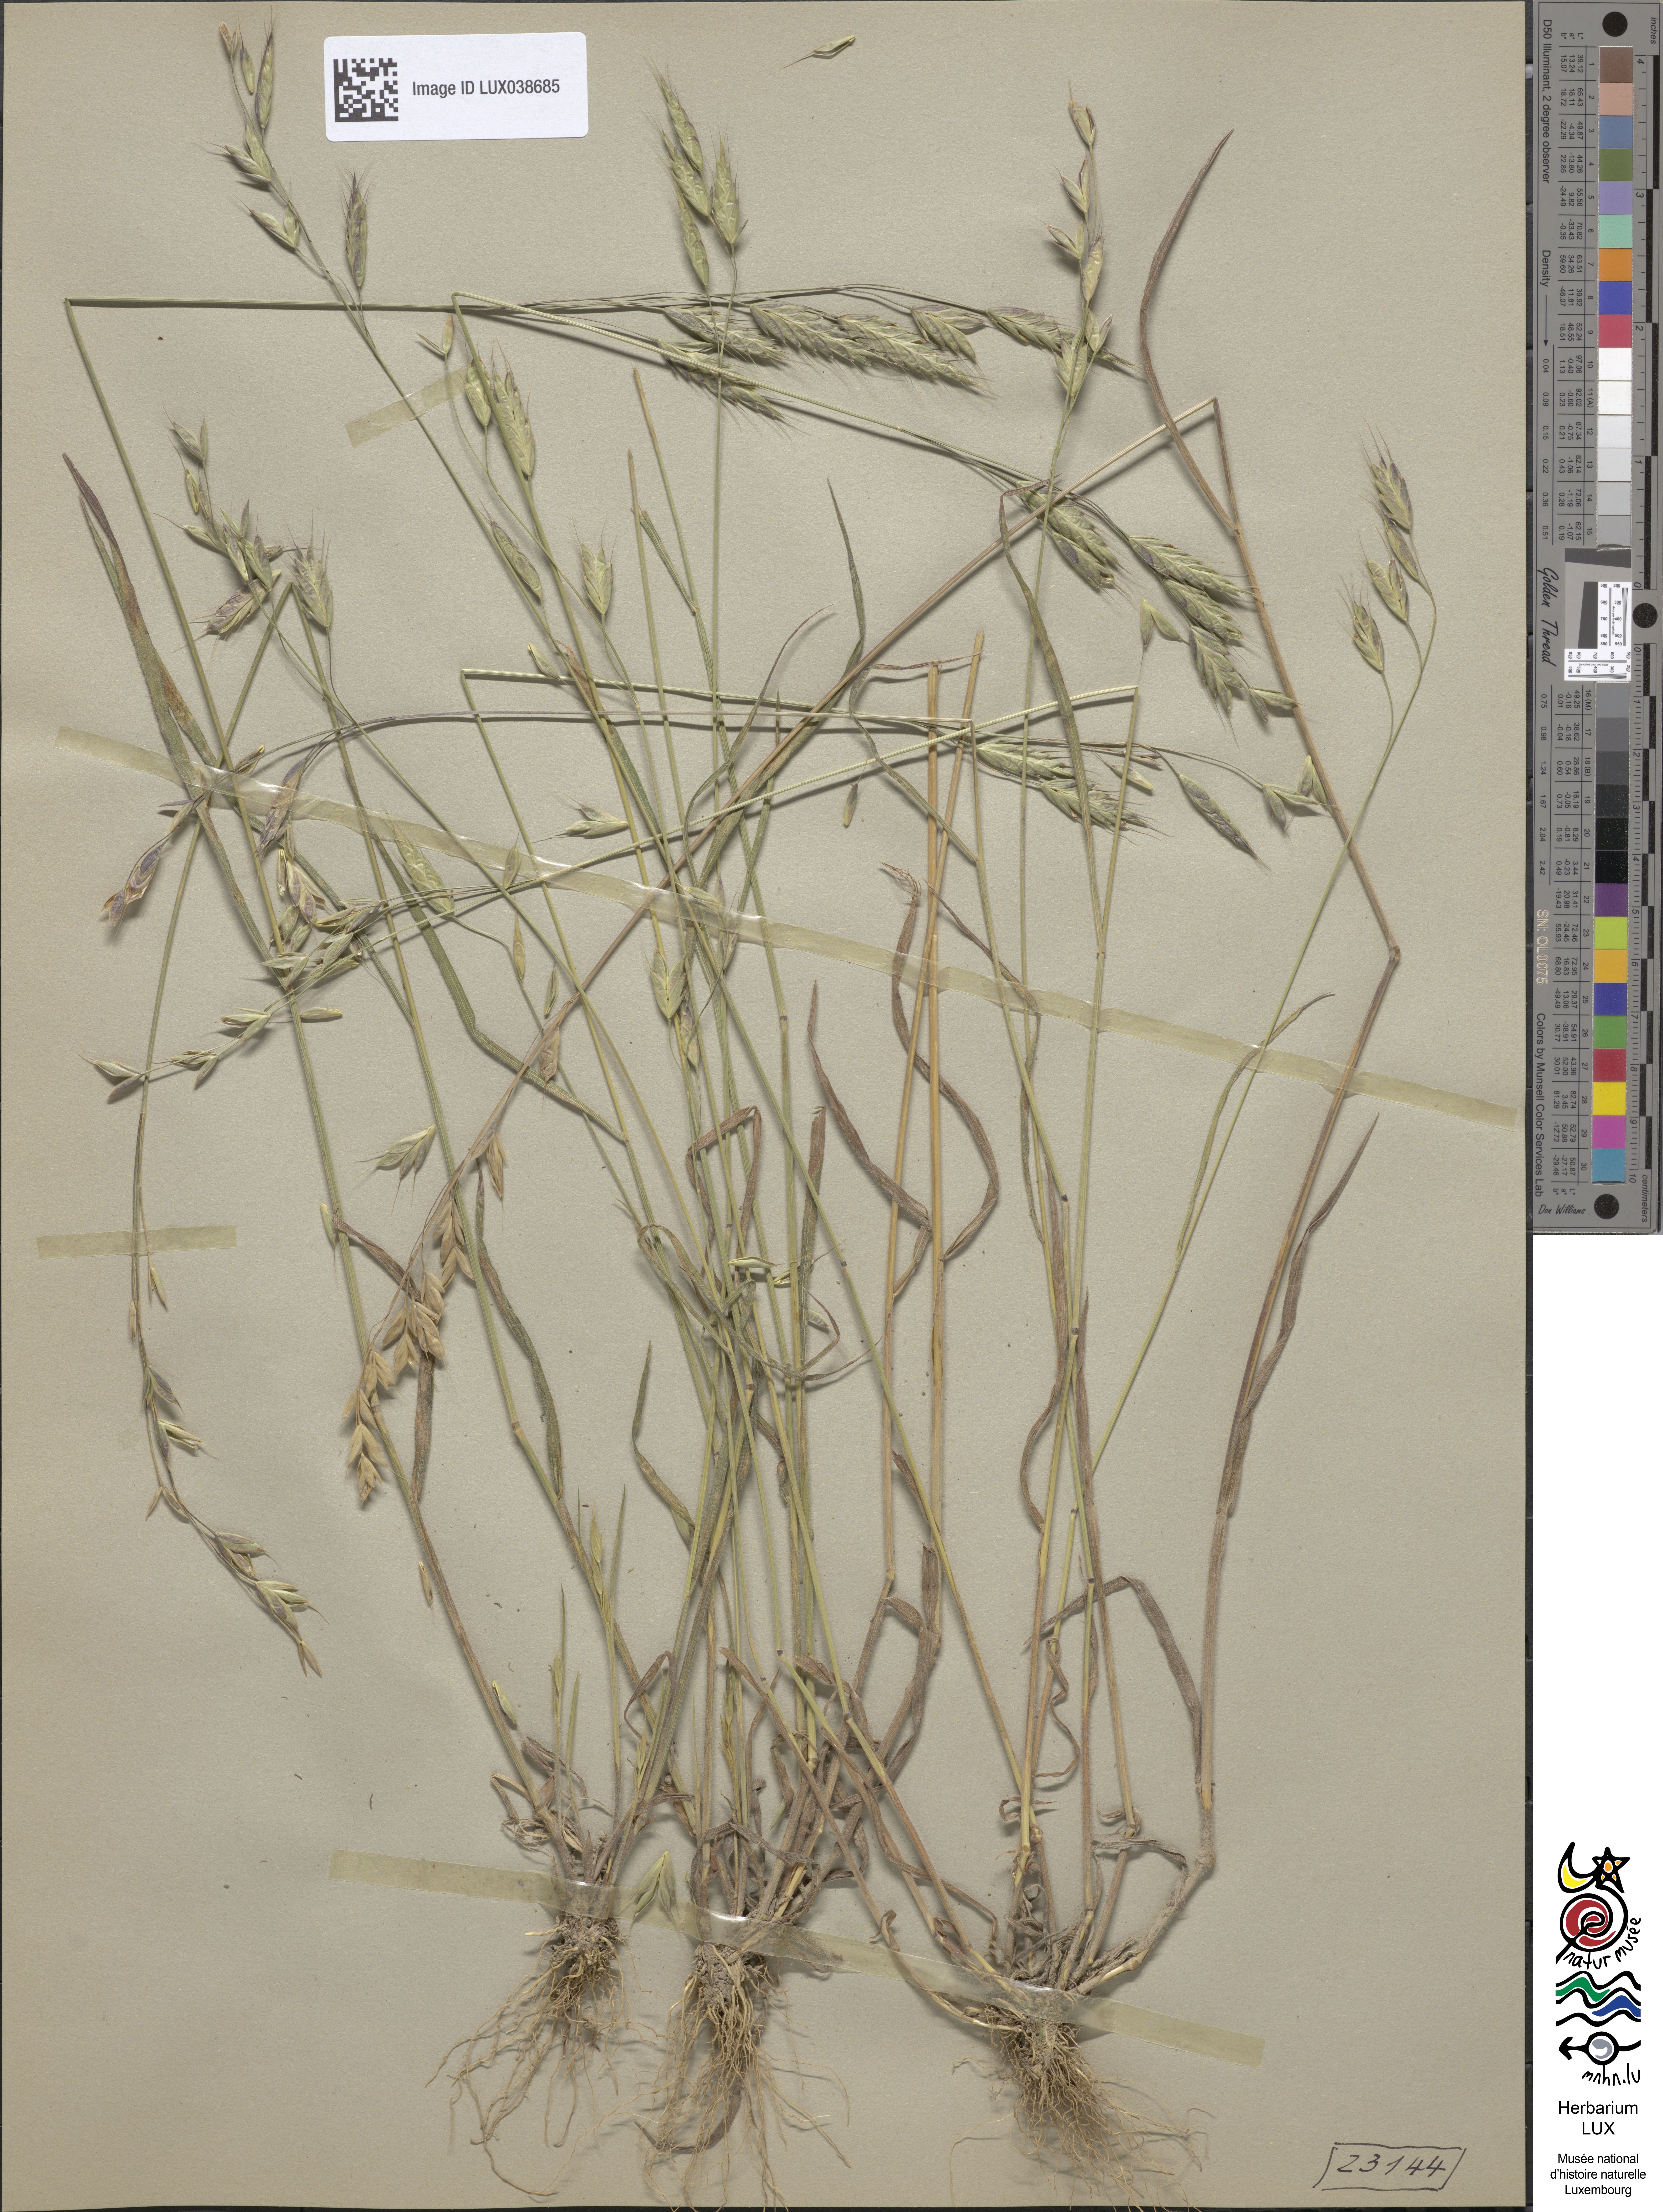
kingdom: Plantae
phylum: Tracheophyta
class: Liliopsida
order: Poales
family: Poaceae
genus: Bromus
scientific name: Bromus commutatus
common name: Meadow brome
